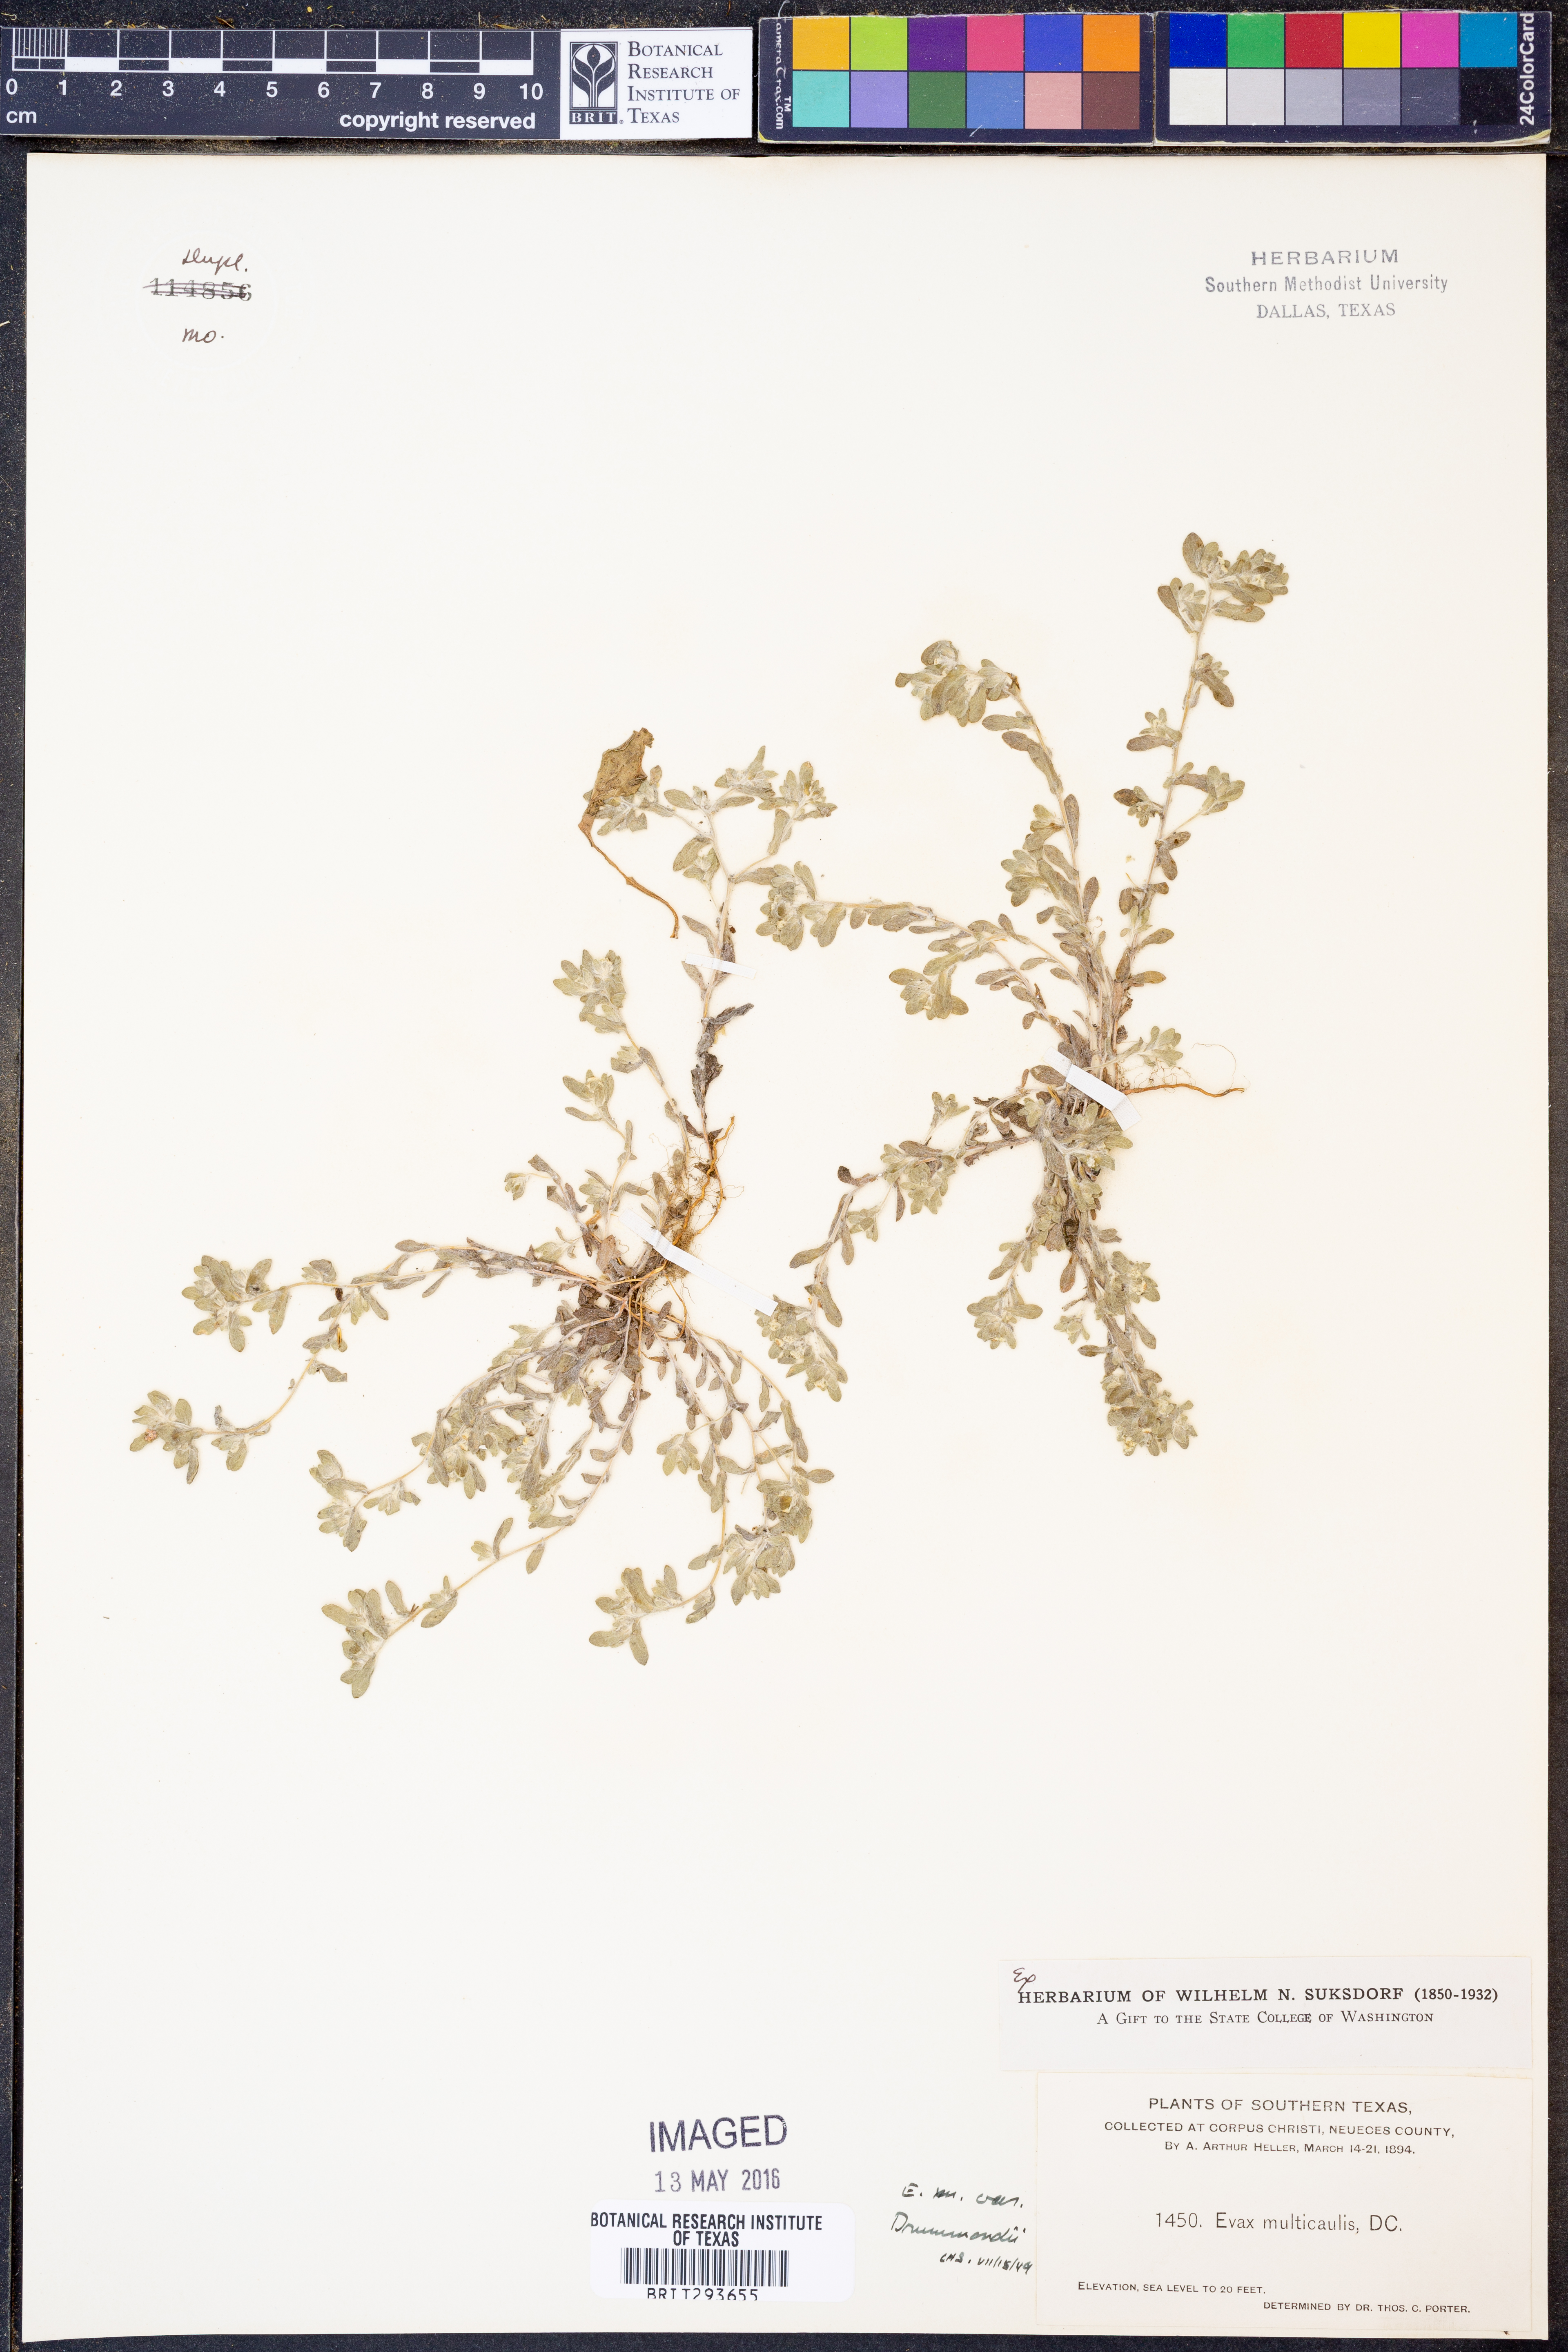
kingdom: Plantae
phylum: Tracheophyta
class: Magnoliopsida
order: Asterales
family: Asteraceae
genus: Diaperia
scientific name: Diaperia verna
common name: Many-stem rabbit-tobacco
